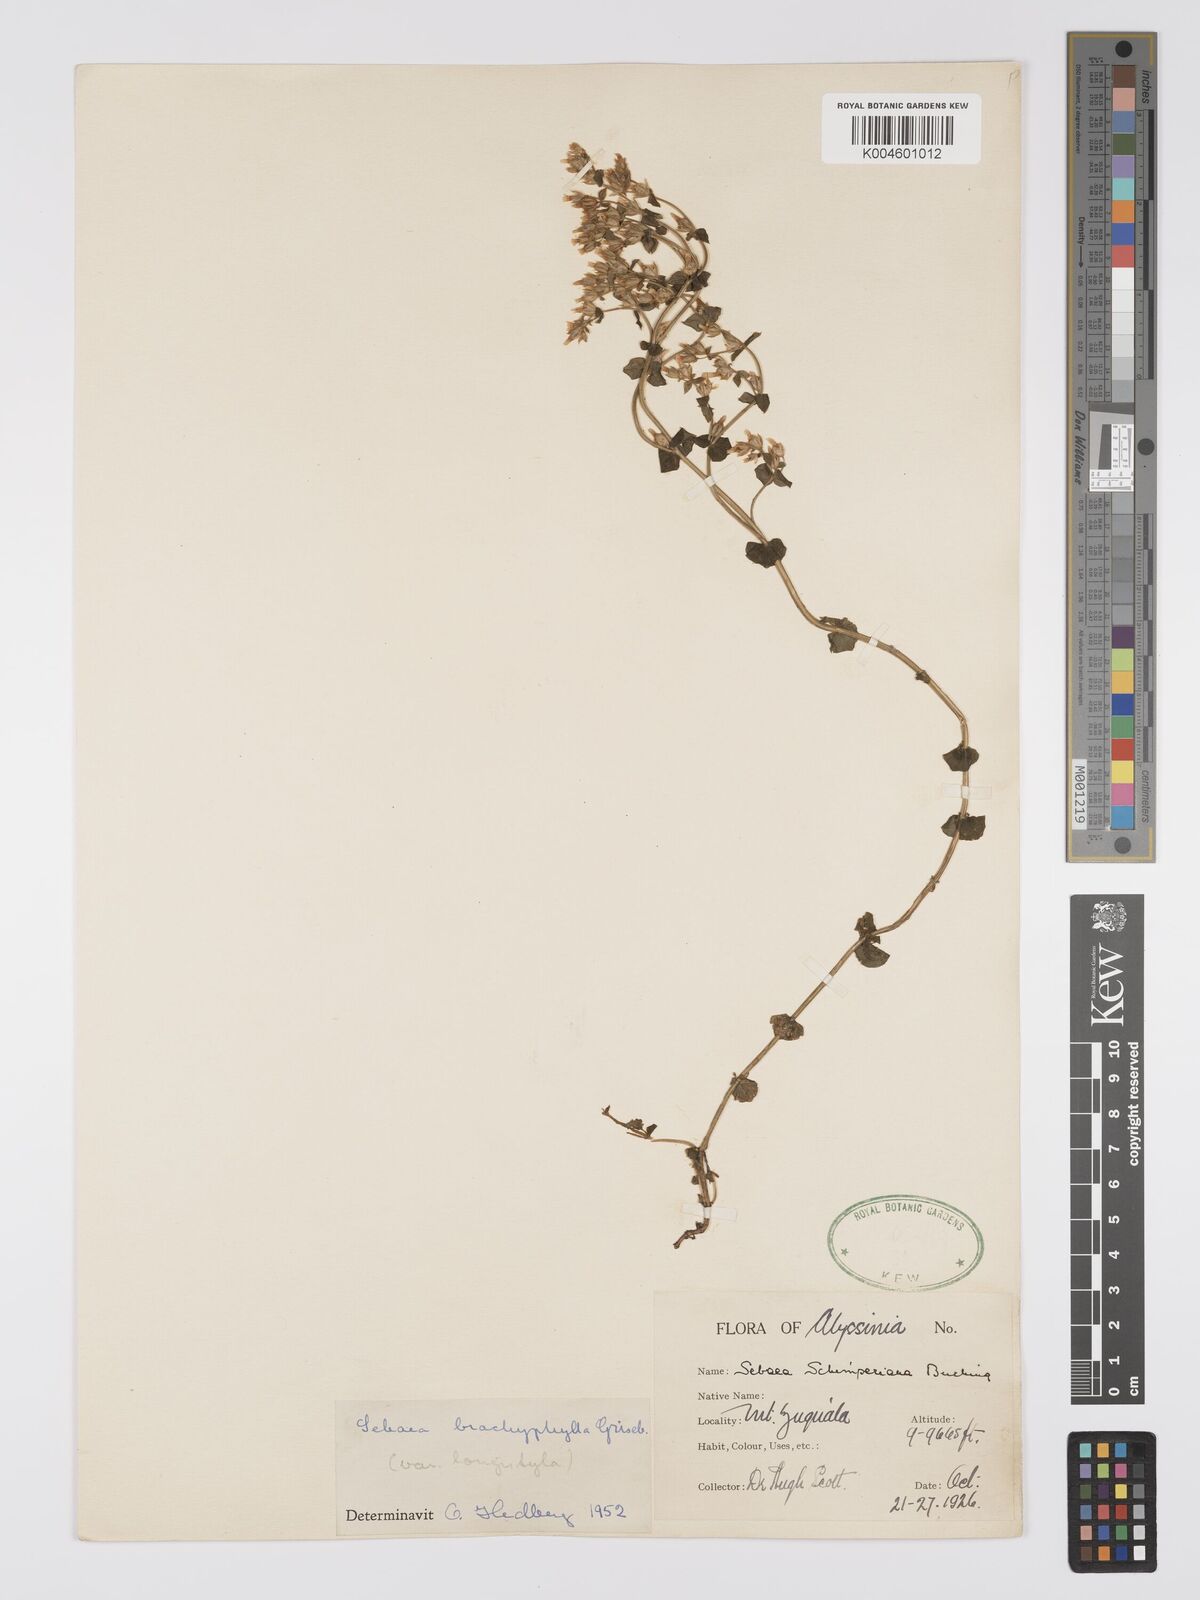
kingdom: Plantae
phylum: Tracheophyta
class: Magnoliopsida
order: Gentianales
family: Gentianaceae
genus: Sebaea
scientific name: Sebaea brachyphylla
